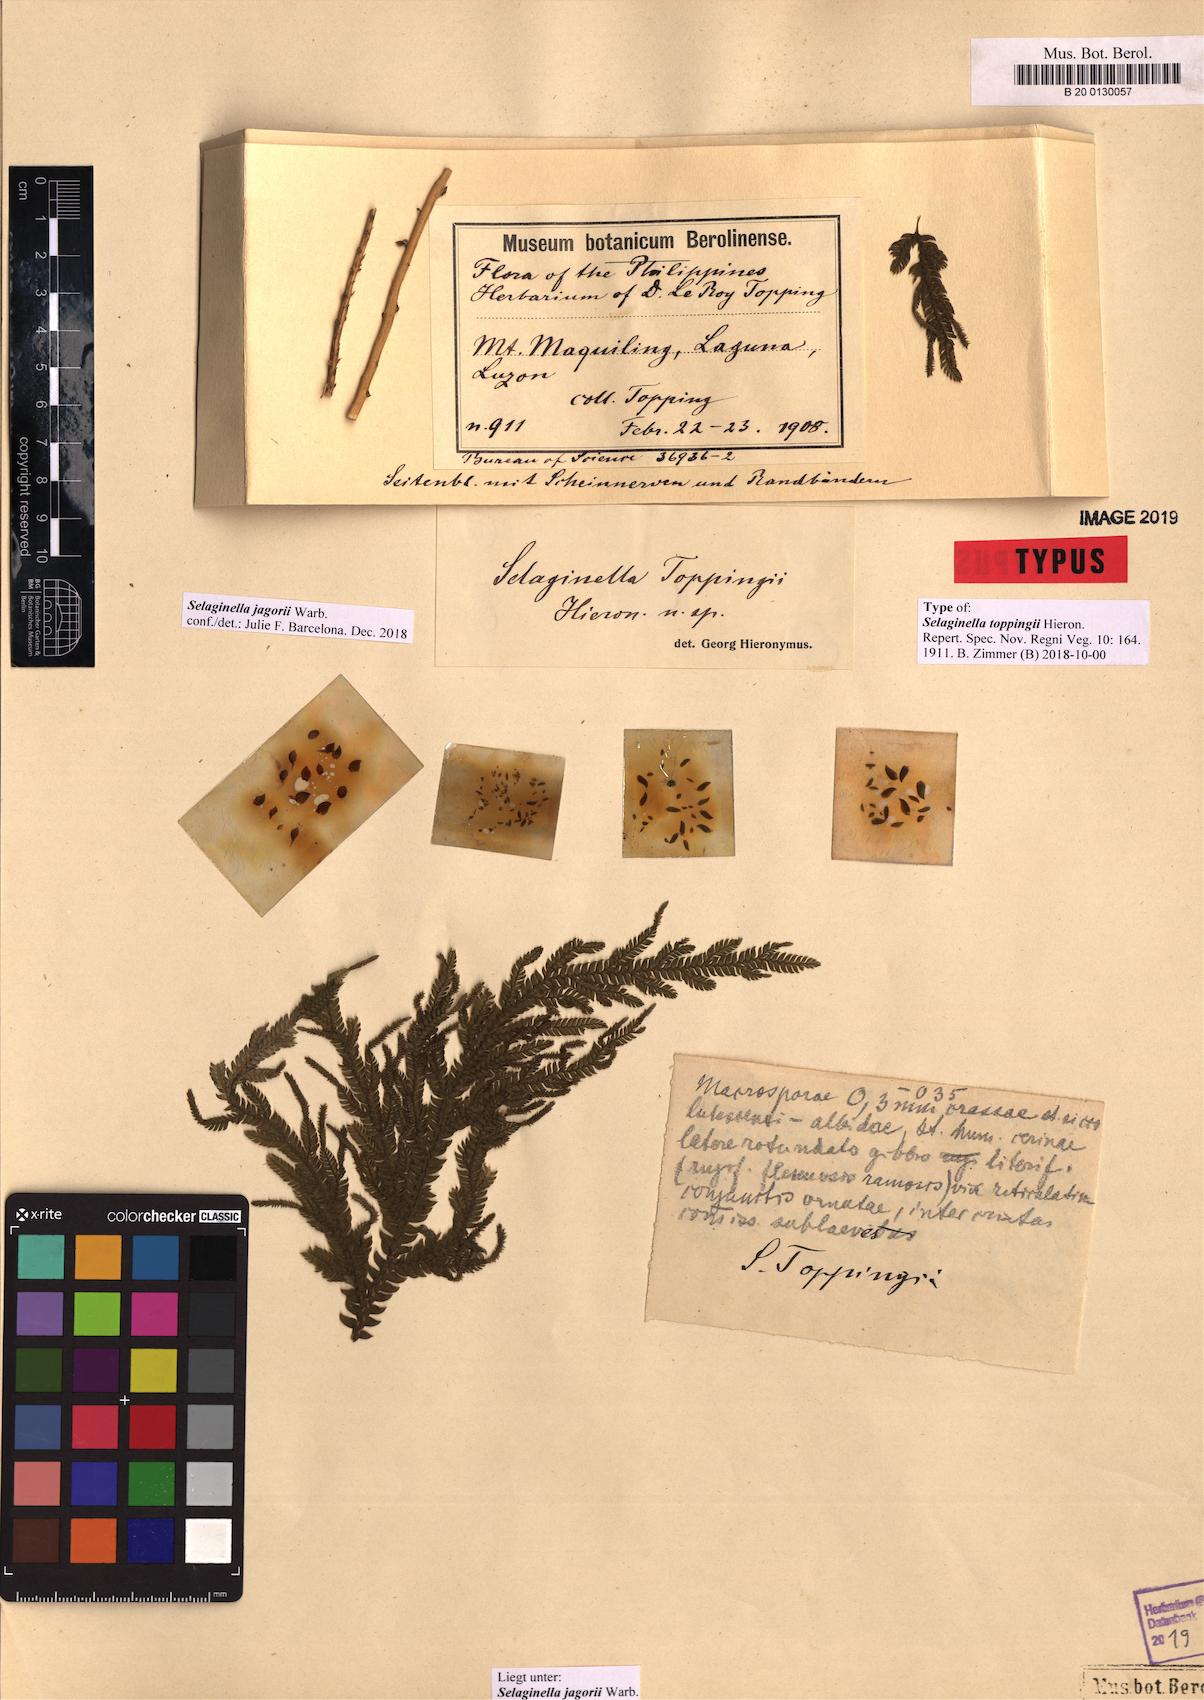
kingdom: Plantae
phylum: Tracheophyta
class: Lycopodiopsida
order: Selaginellales
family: Selaginellaceae
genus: Selaginella
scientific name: Selaginella jagorii
